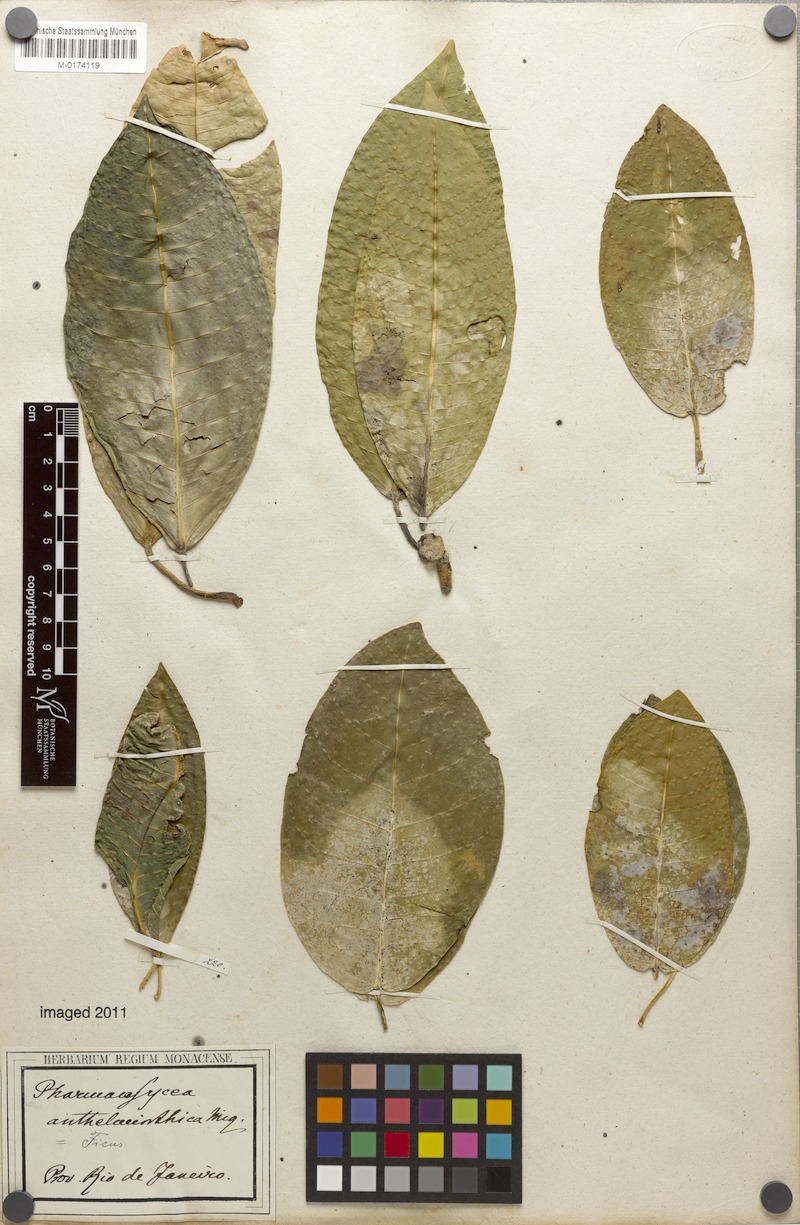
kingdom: Plantae
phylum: Tracheophyta
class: Magnoliopsida
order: Rosales
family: Moraceae
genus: Ficus
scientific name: Ficus adhatodifolia
